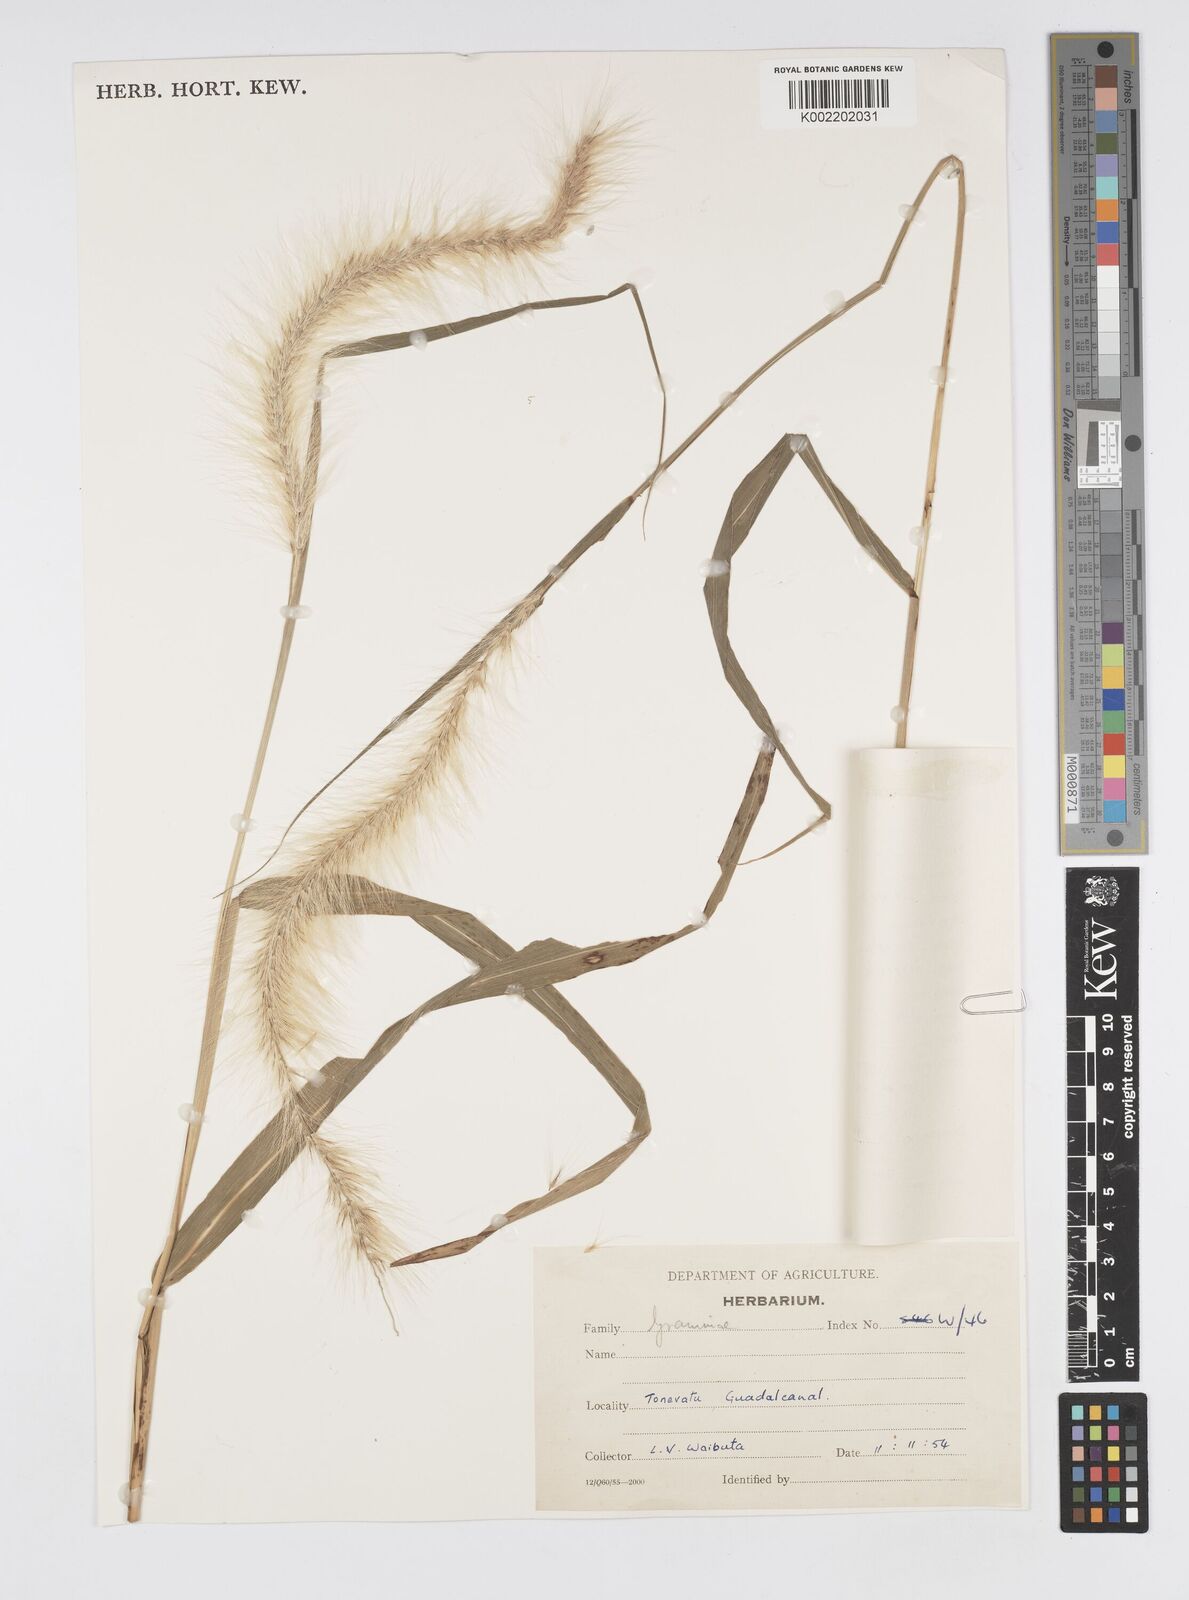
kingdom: Plantae
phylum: Tracheophyta
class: Liliopsida
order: Poales
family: Poaceae
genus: Cenchrus
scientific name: Cenchrus purpureus
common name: Elephant grass
